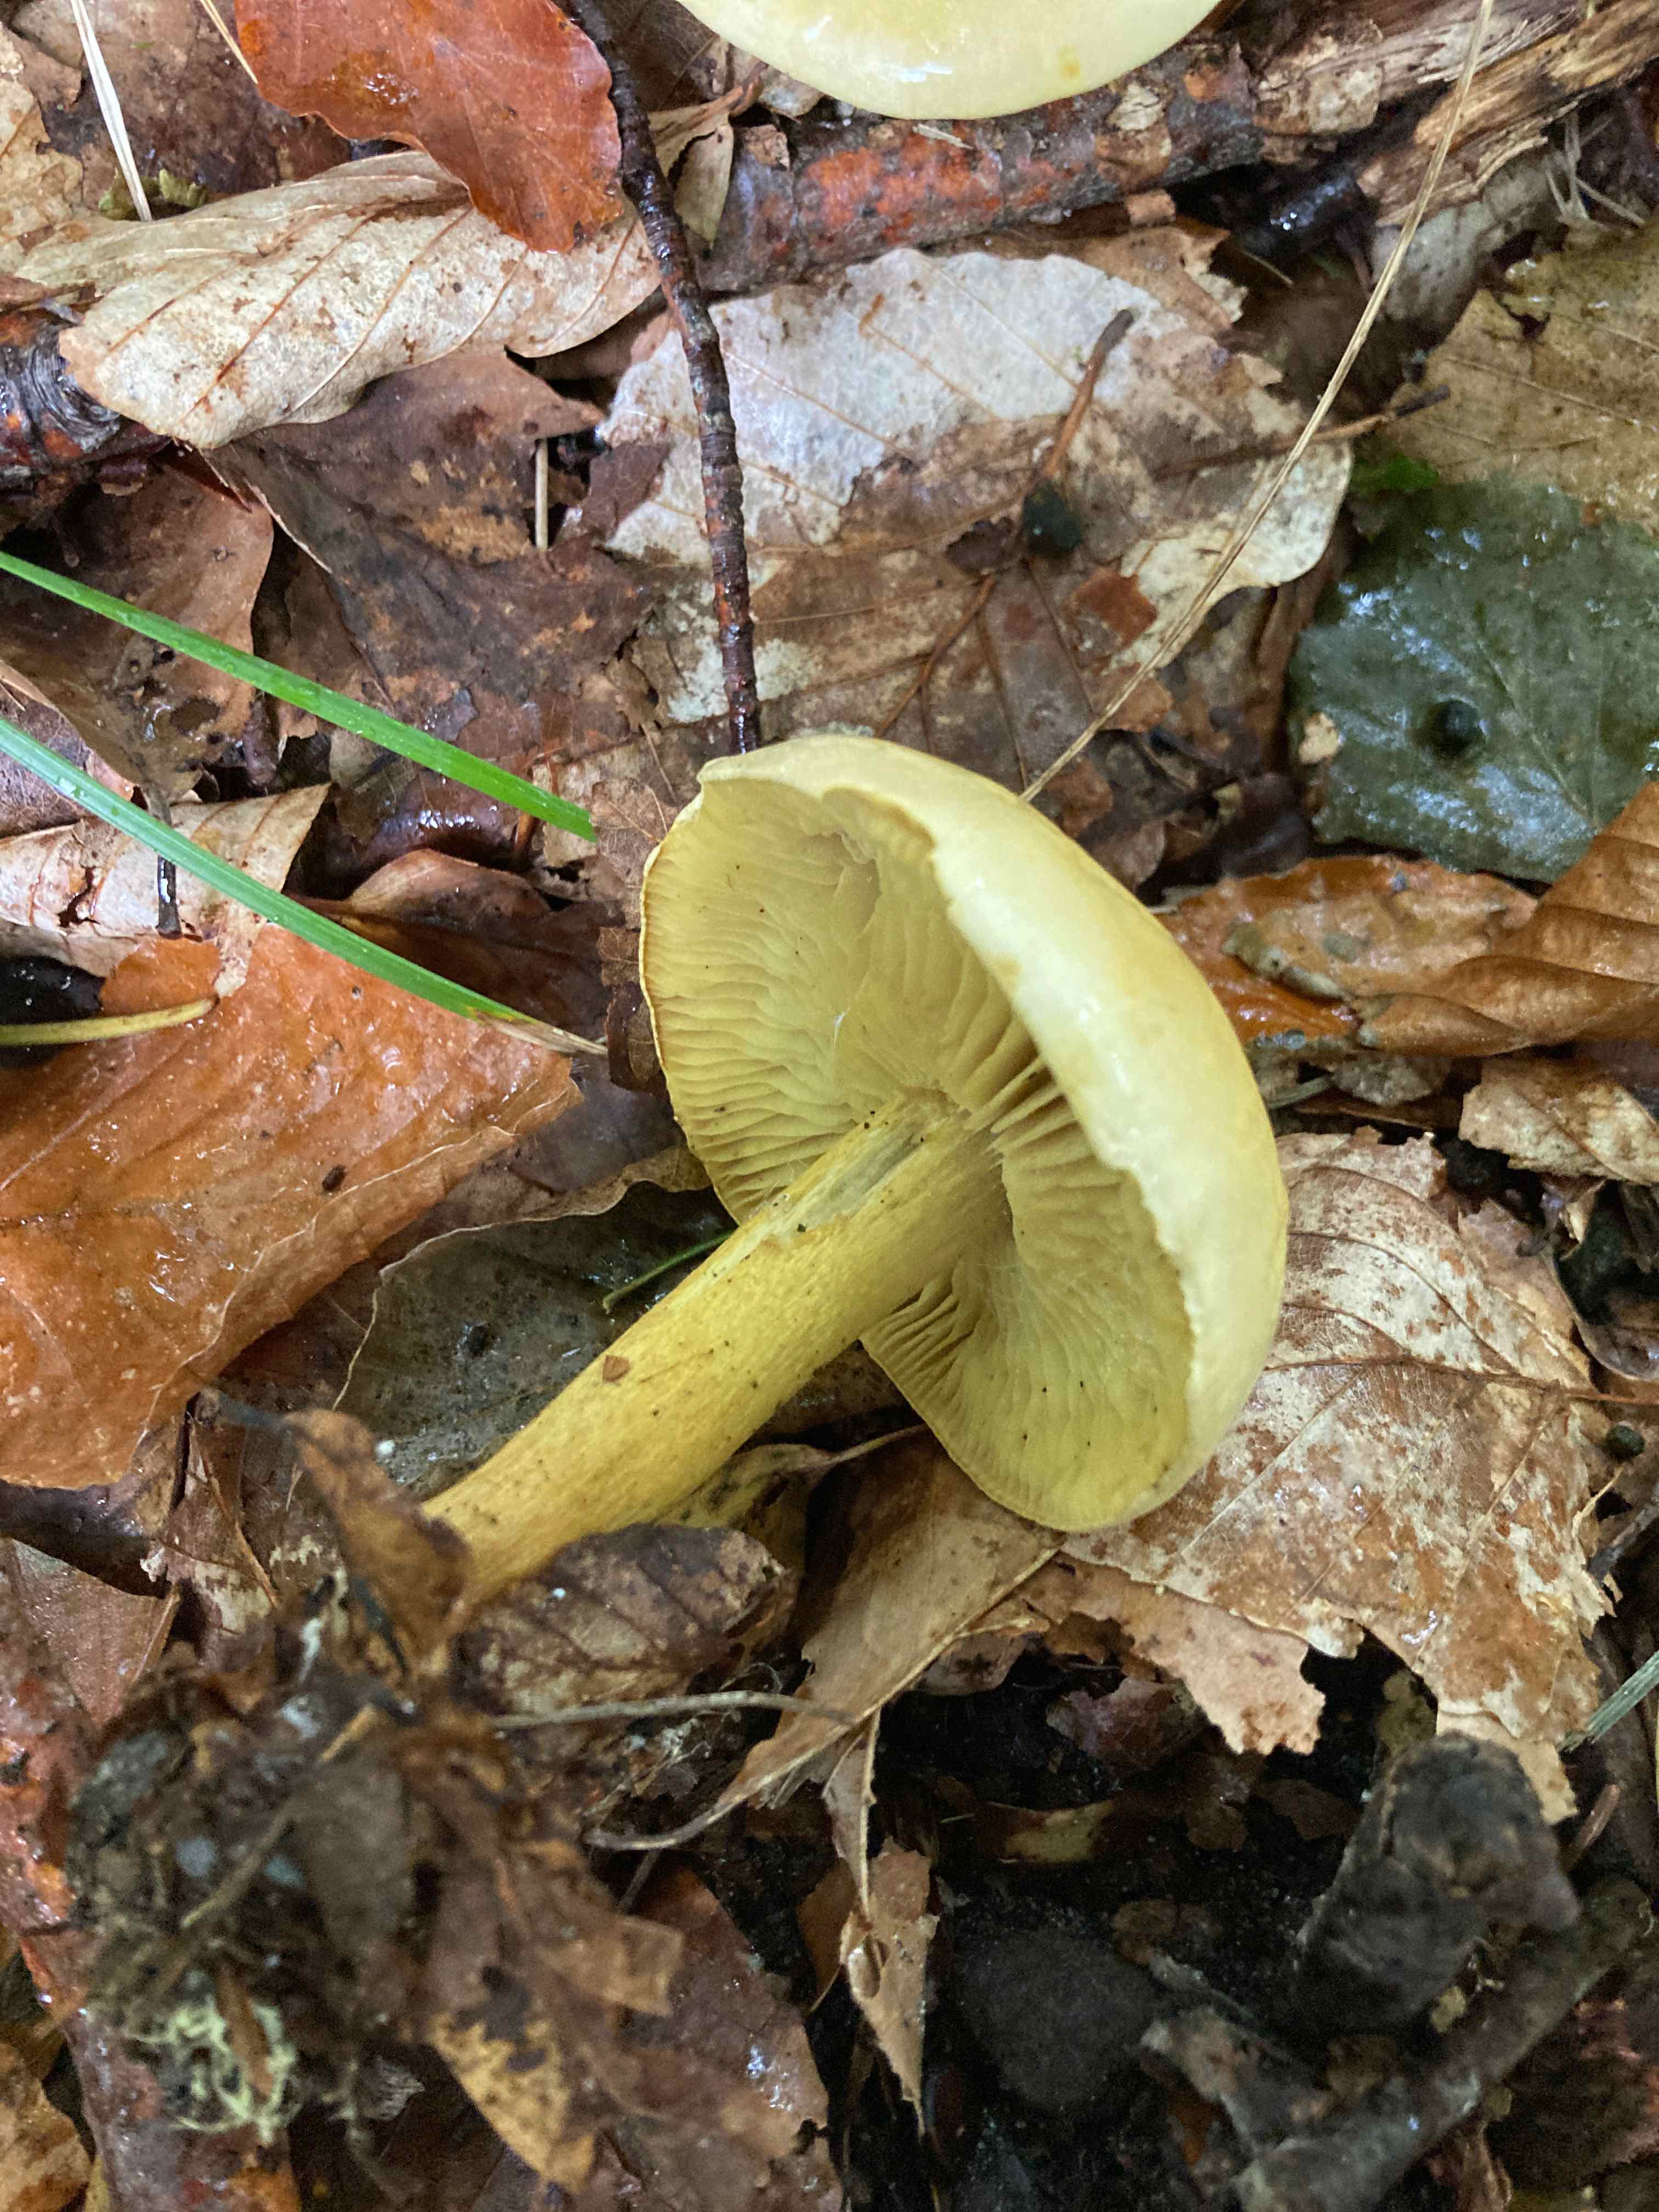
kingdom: Fungi
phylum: Basidiomycota
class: Agaricomycetes
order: Agaricales
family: Tricholomataceae
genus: Tricholoma
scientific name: Tricholoma sulphureum
